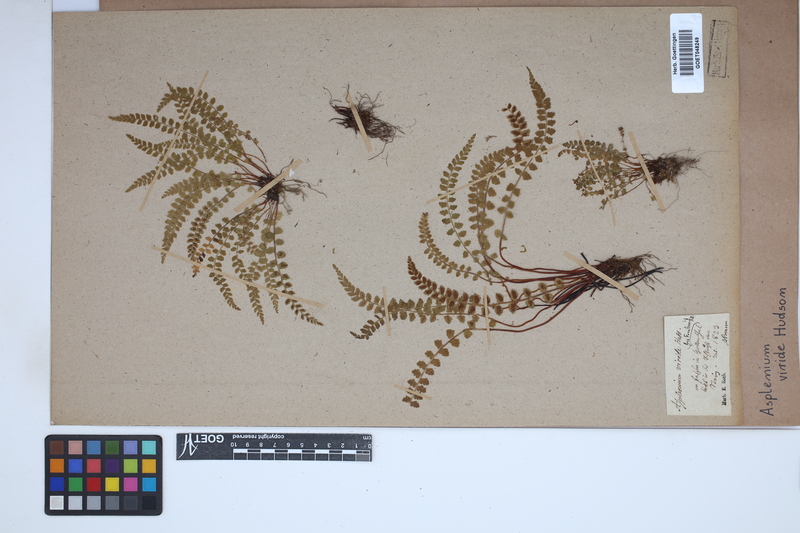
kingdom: Plantae
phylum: Tracheophyta
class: Polypodiopsida
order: Polypodiales
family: Aspleniaceae
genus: Asplenium
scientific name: Asplenium viride
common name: Green spleenwort
